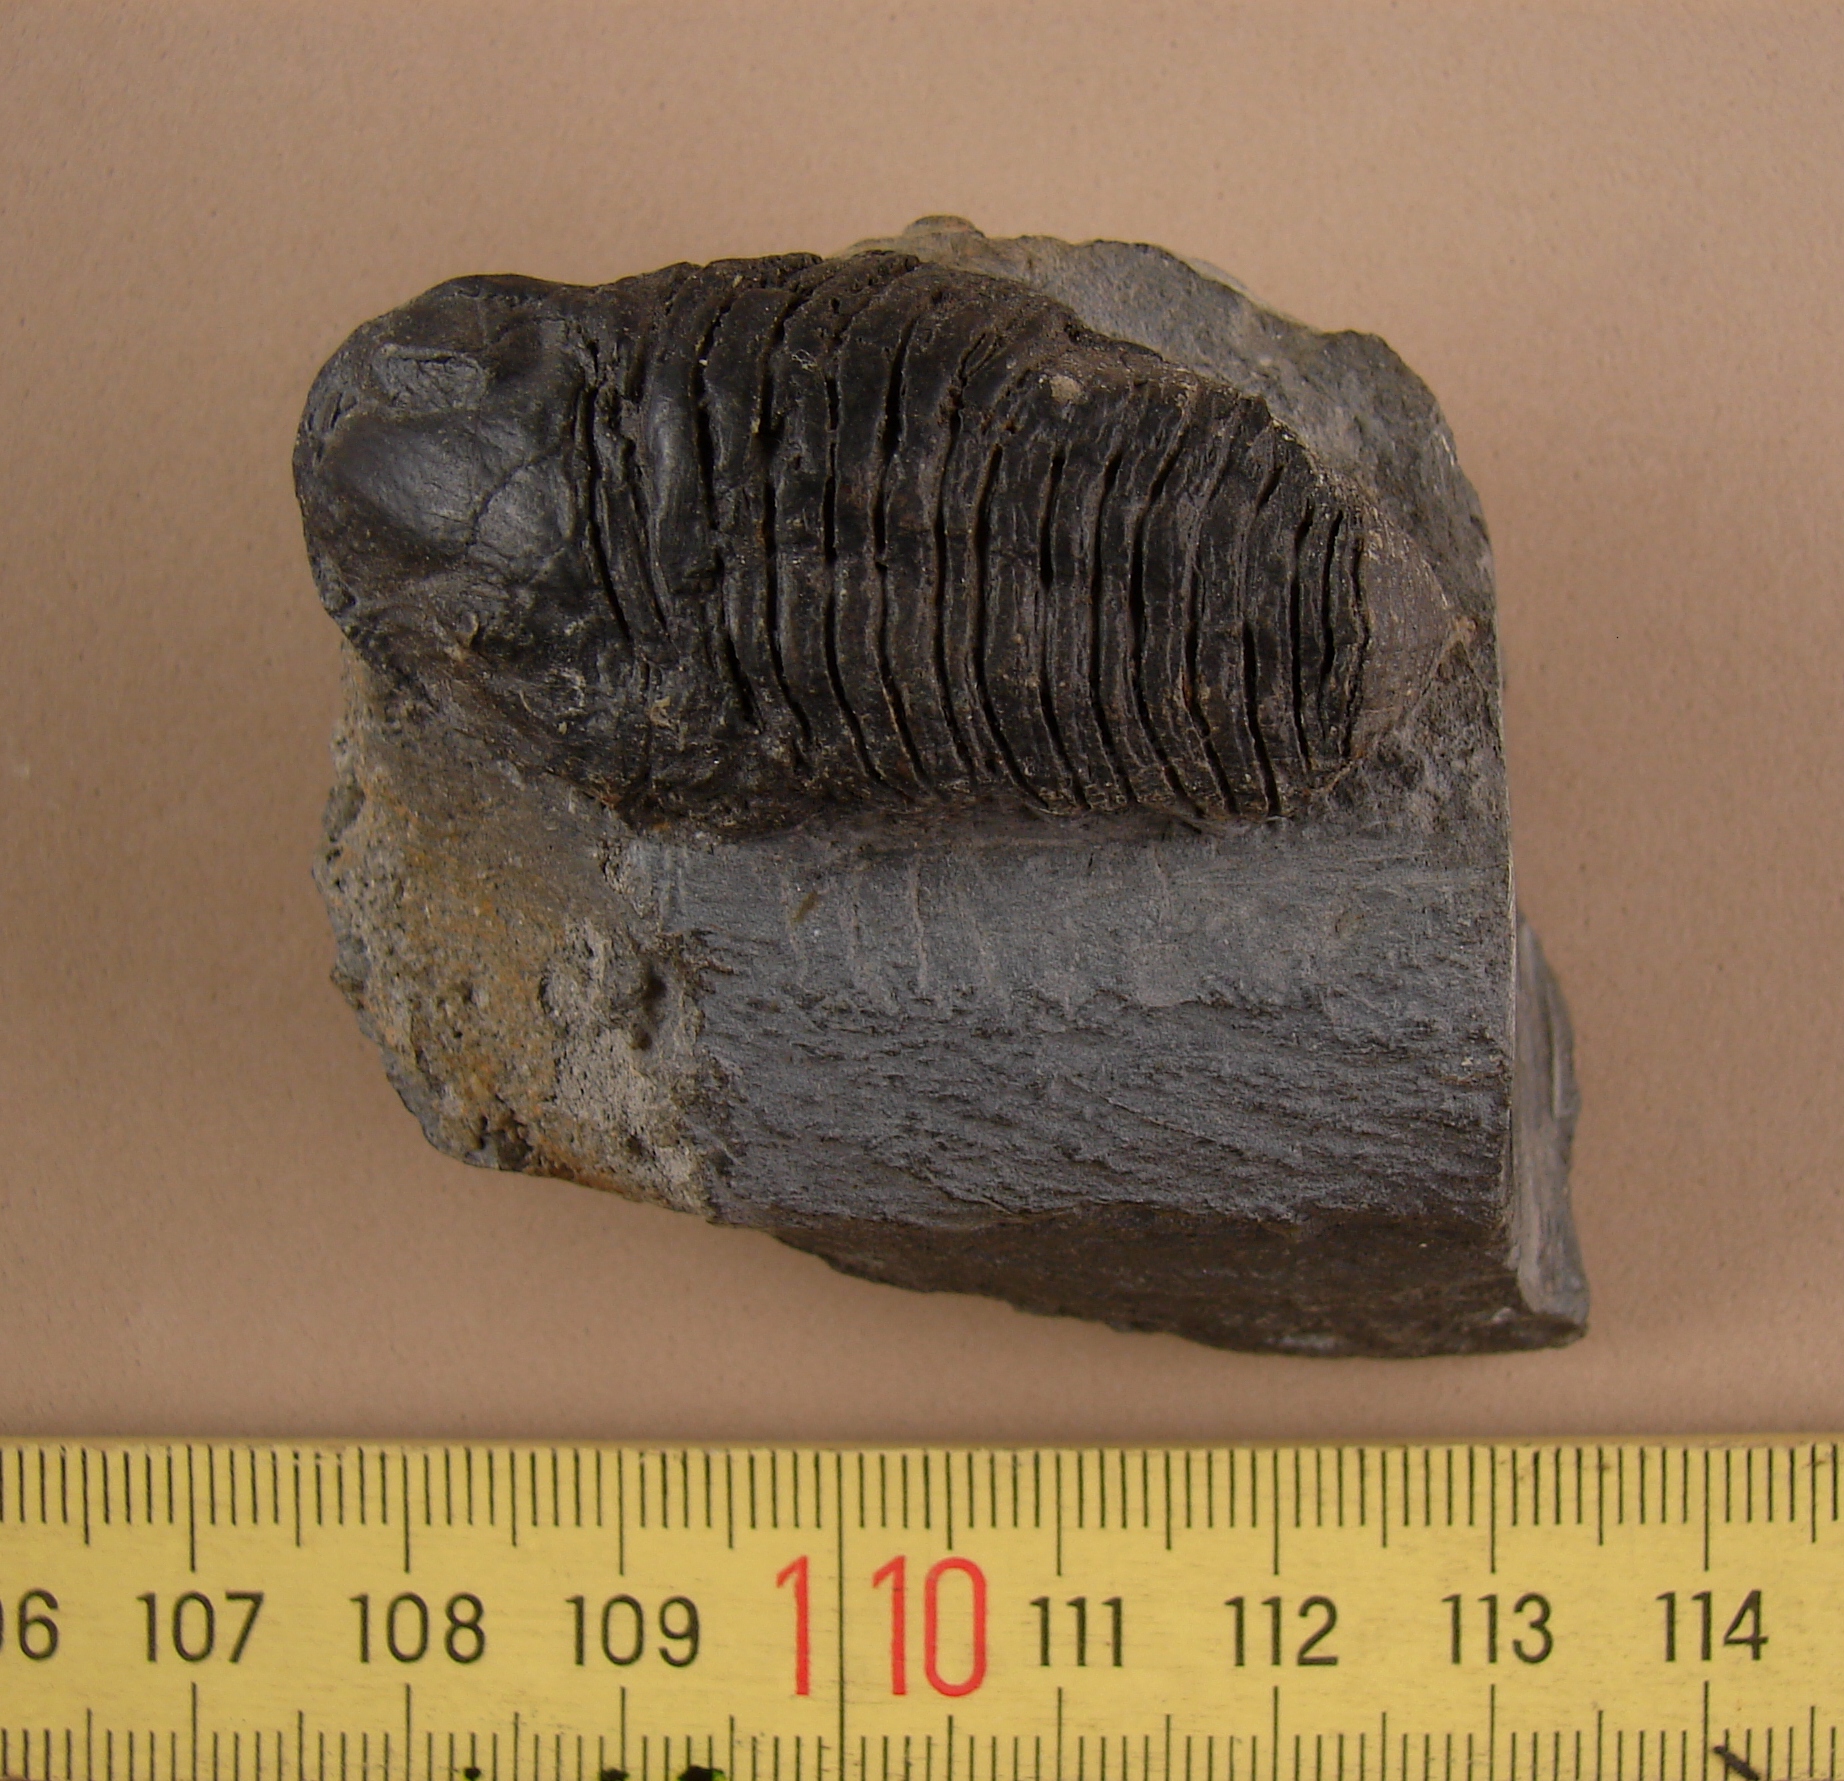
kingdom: Animalia
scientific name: Animalia
